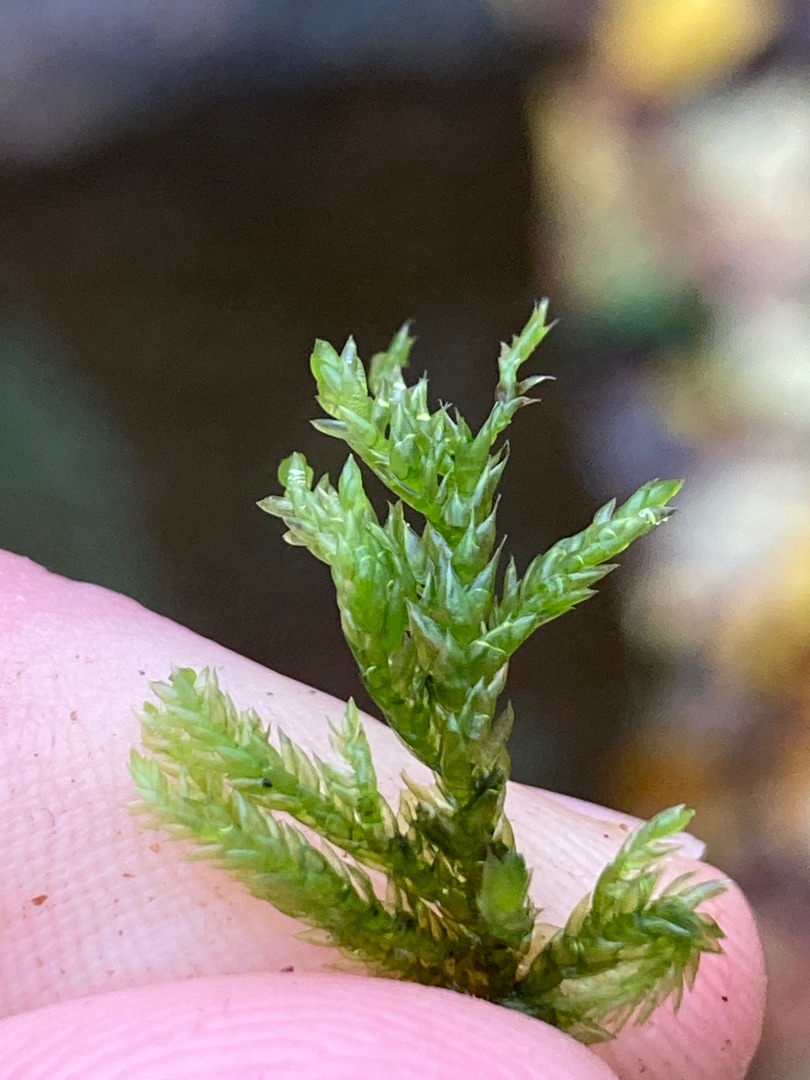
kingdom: Plantae
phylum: Bryophyta
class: Bryopsida
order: Hypnales
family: Lembophyllaceae
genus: Isothecium
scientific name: Isothecium alopecuroides
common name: Stor stammemos
